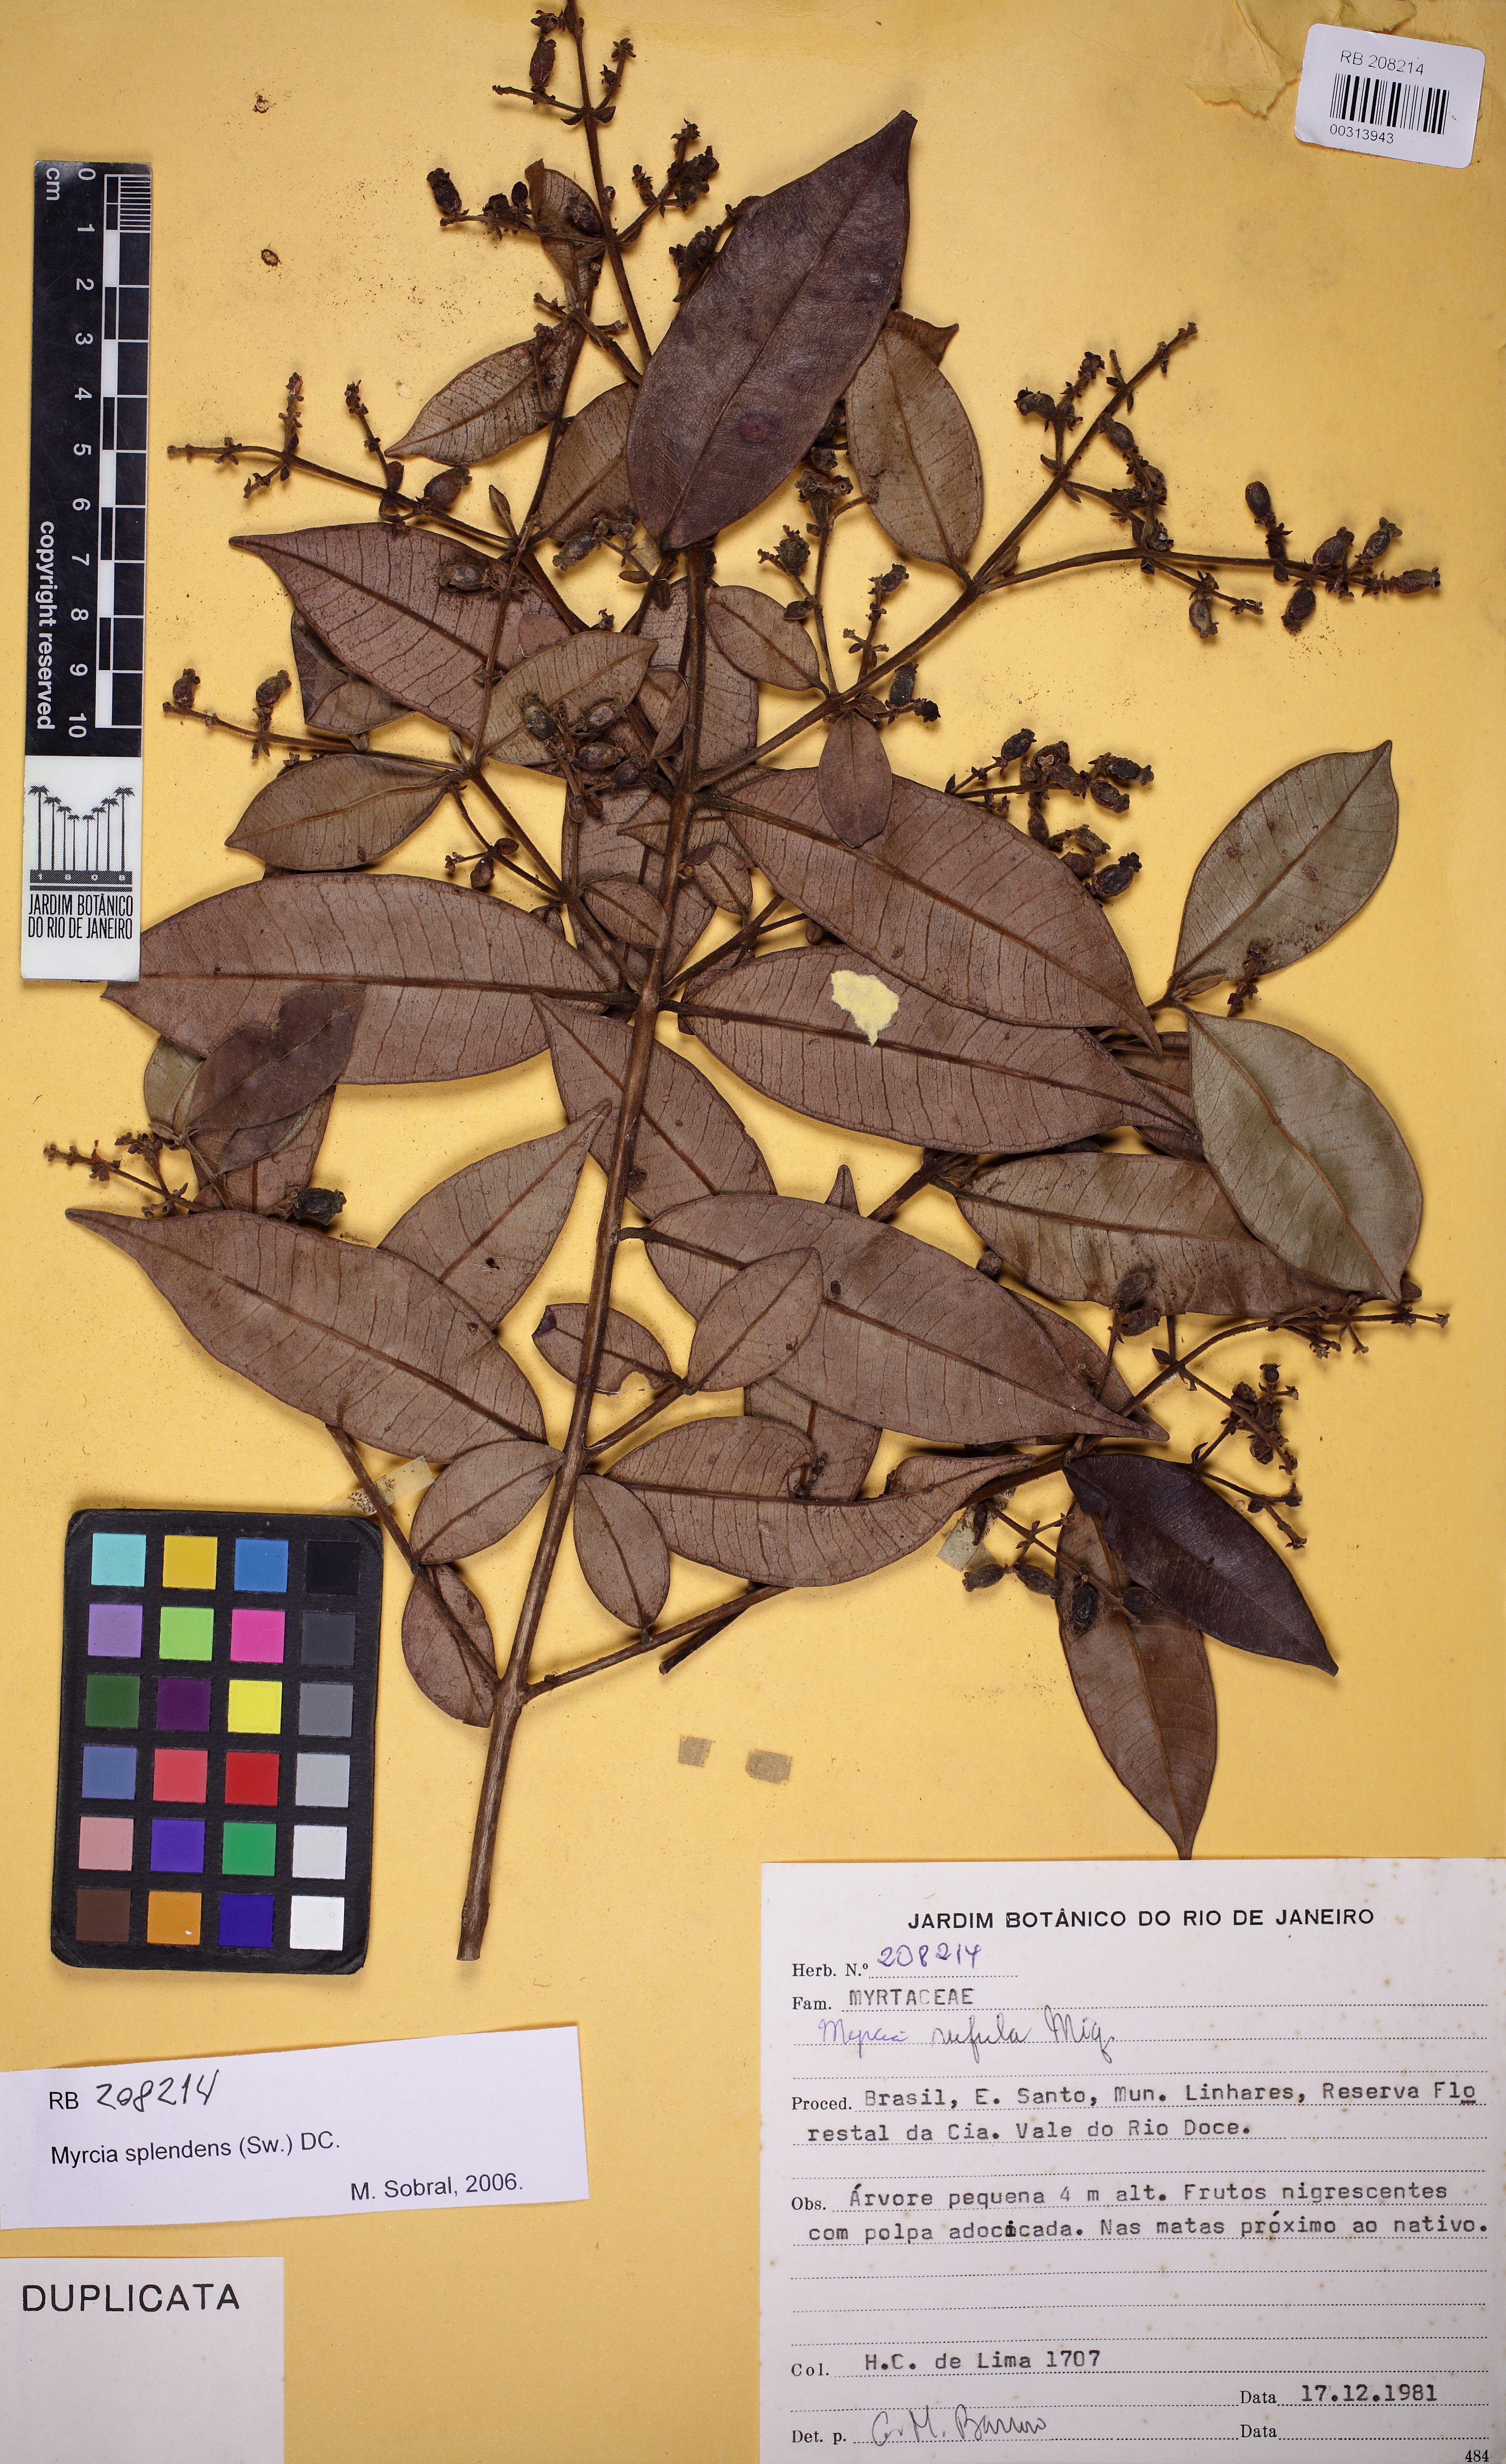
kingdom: Plantae
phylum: Tracheophyta
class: Magnoliopsida
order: Myrtales
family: Myrtaceae
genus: Myrcia
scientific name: Myrcia splendens
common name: Surinam cherry
